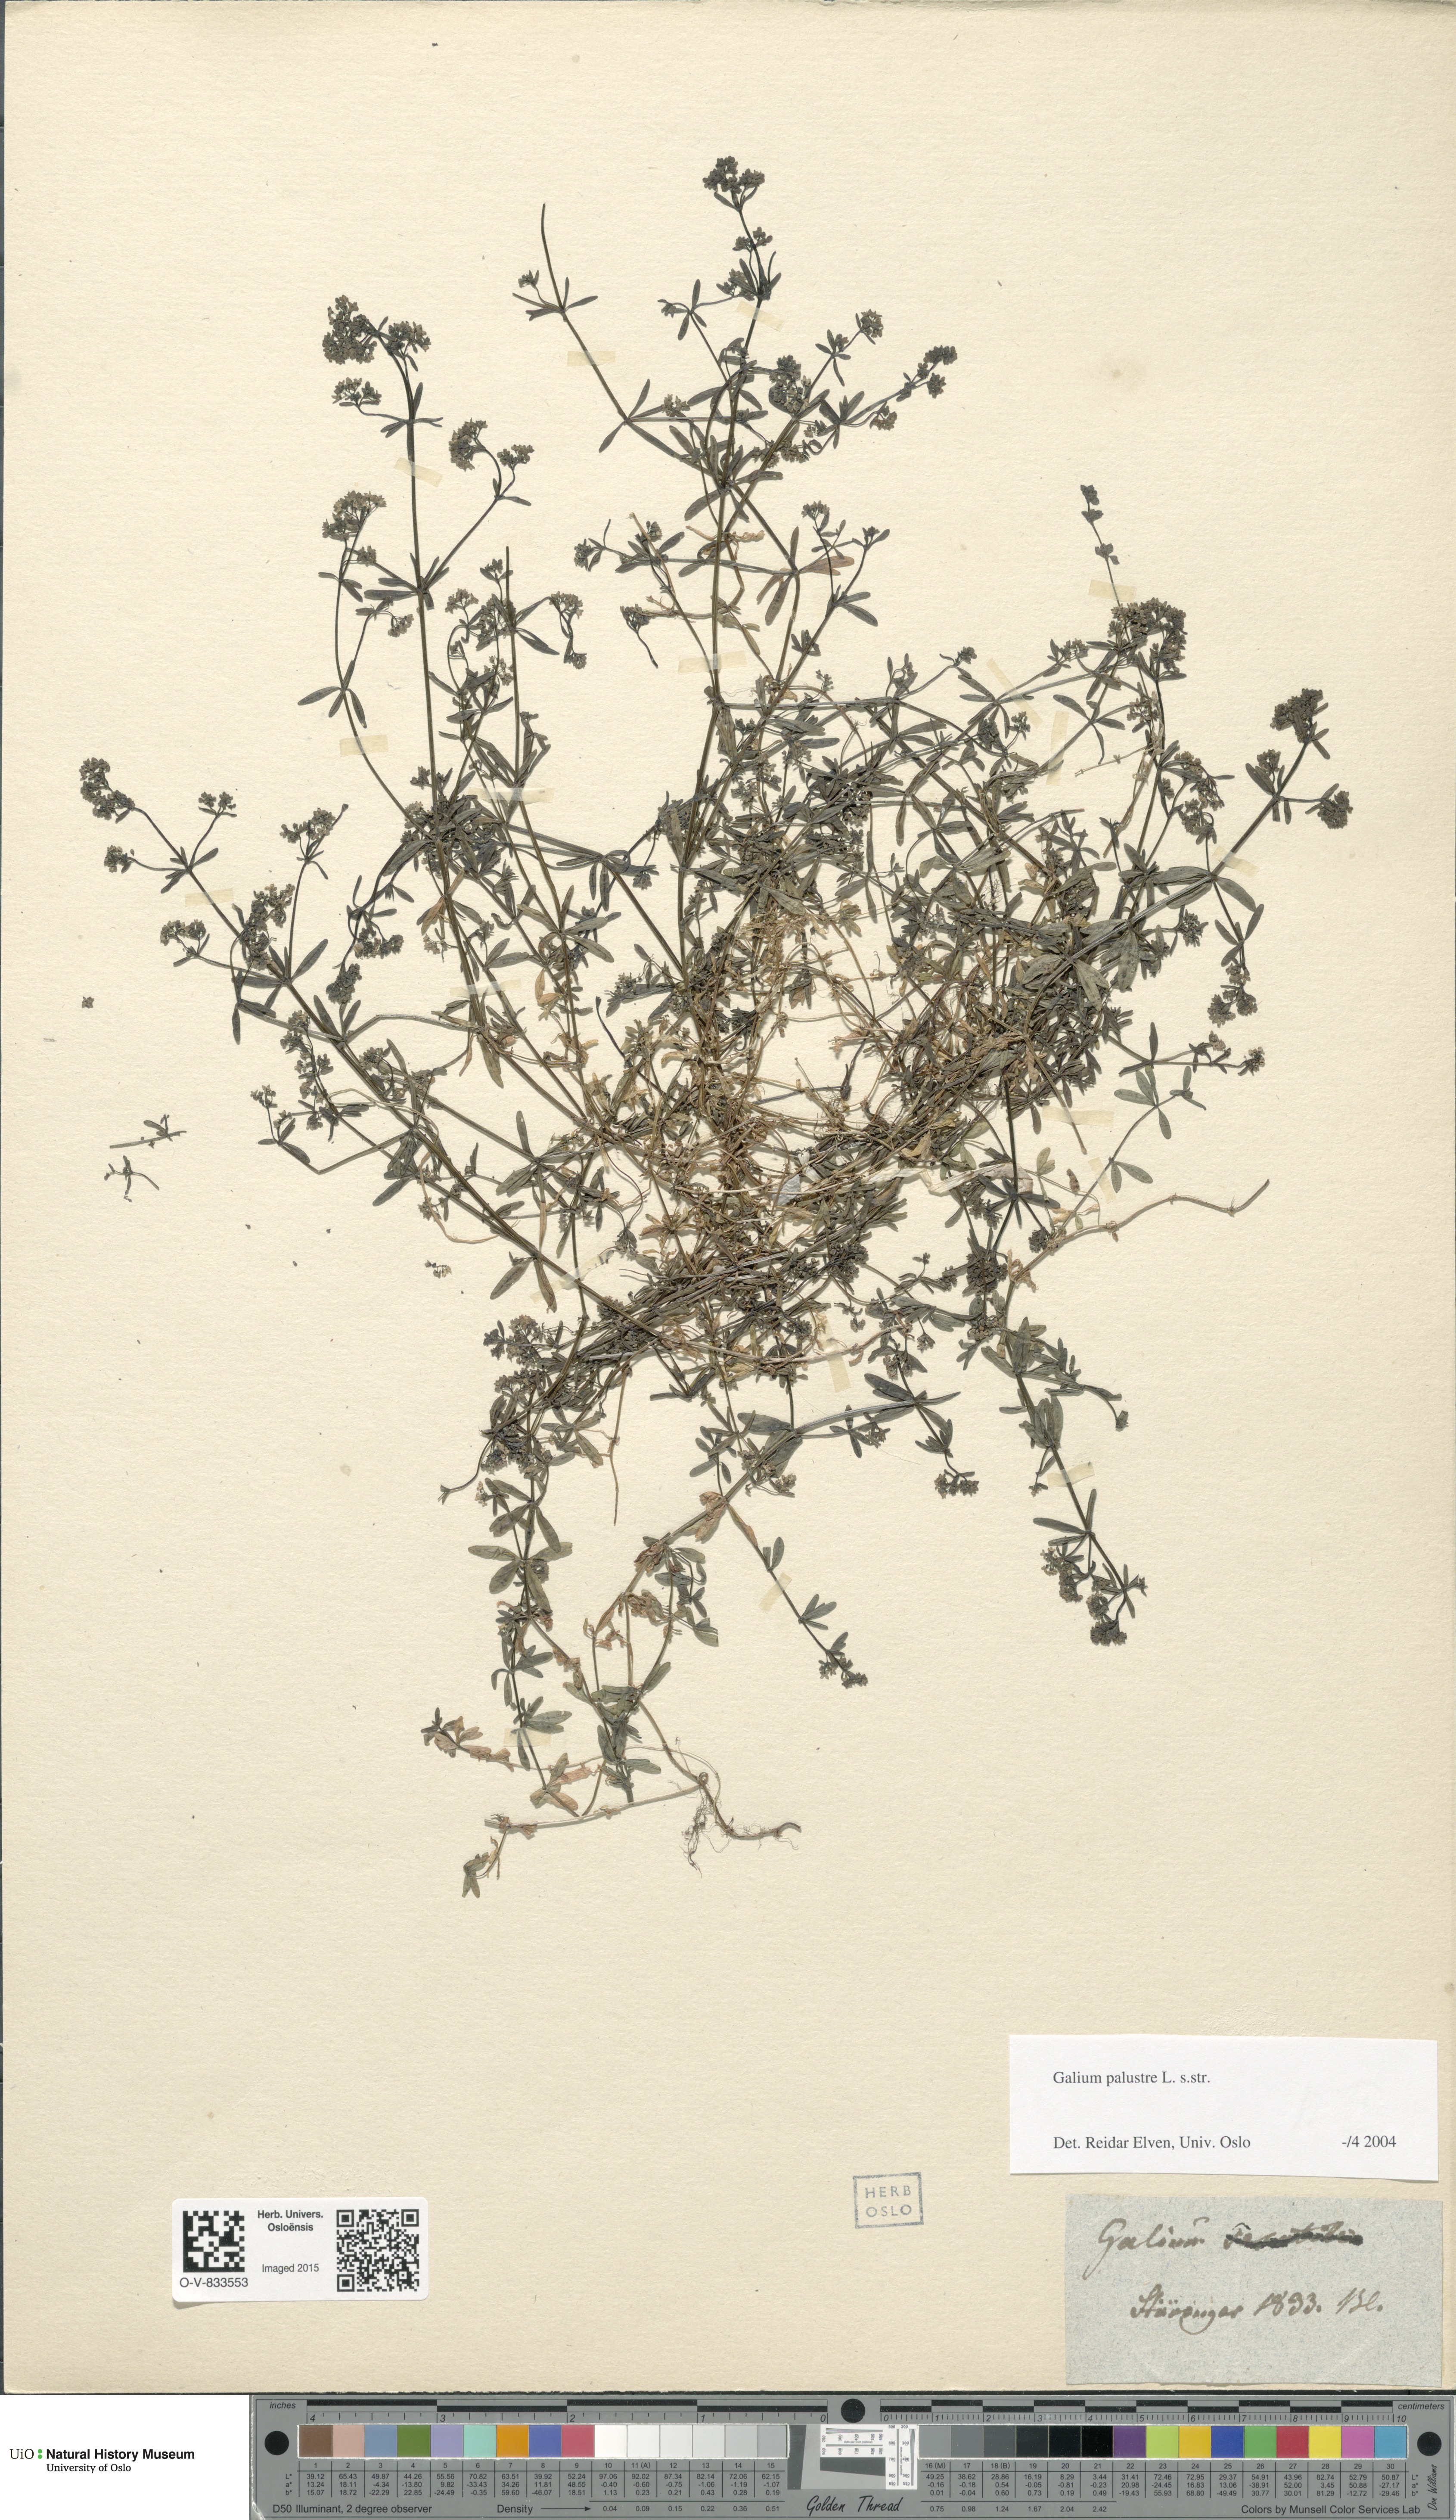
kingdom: Plantae
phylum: Tracheophyta
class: Magnoliopsida
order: Gentianales
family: Rubiaceae
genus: Galium
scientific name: Galium palustre
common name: Common marsh-bedstraw
